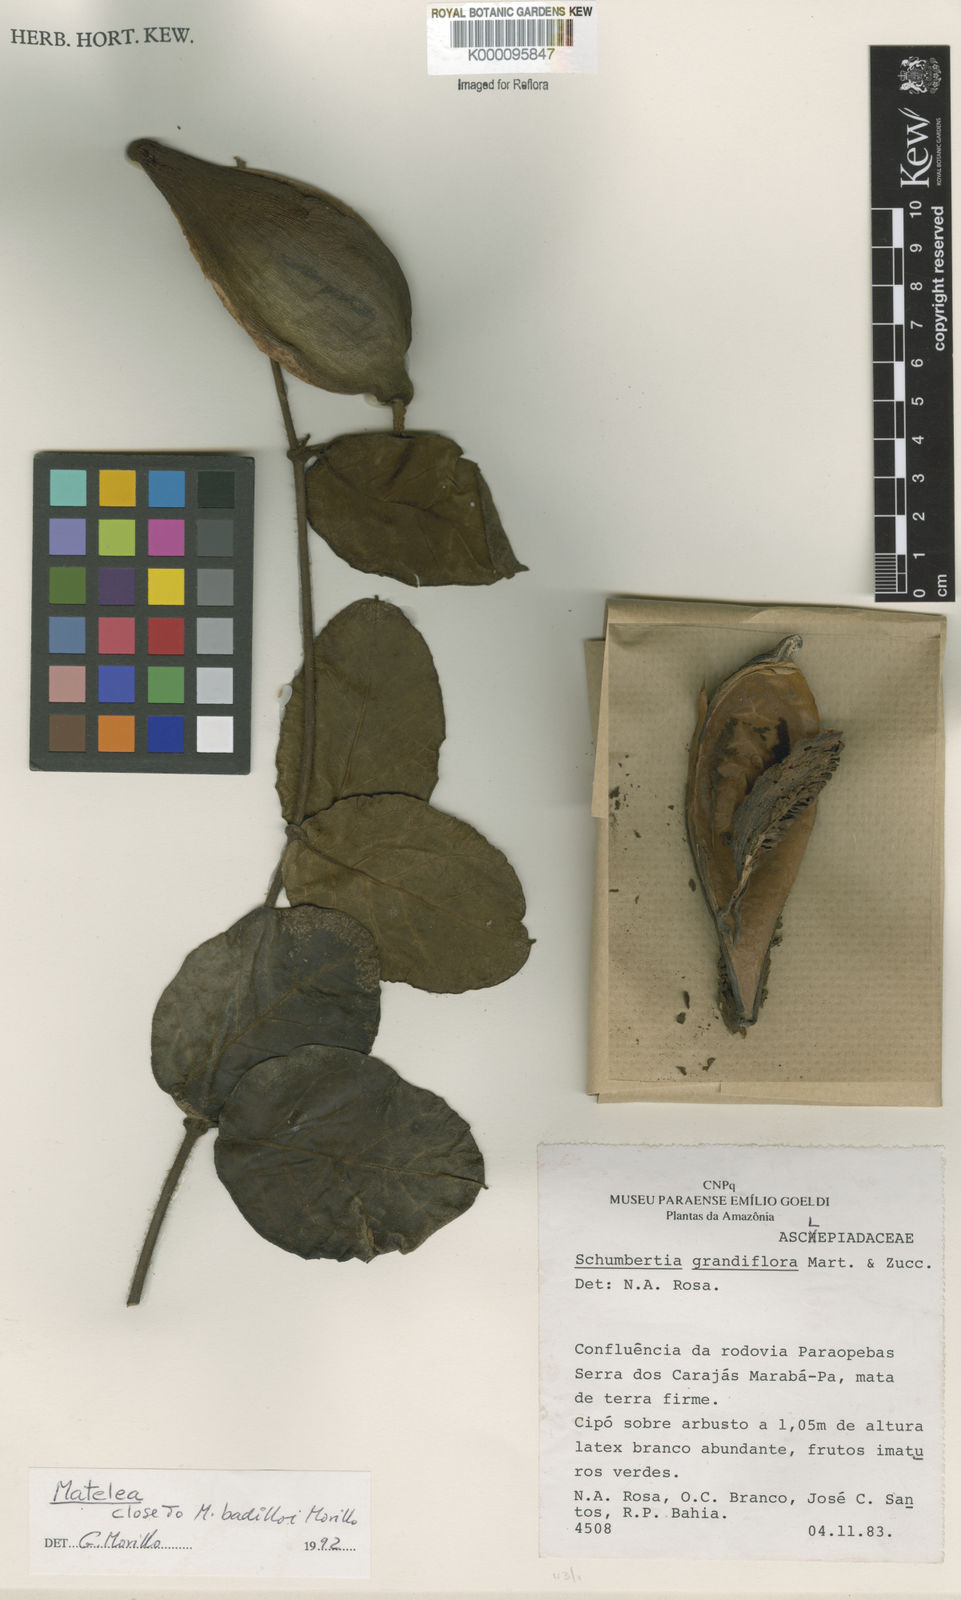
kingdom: Plantae
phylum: Tracheophyta
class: Magnoliopsida
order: Gentianales
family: Apocynaceae
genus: Rhytidostemma
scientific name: Rhytidostemma badilloi
